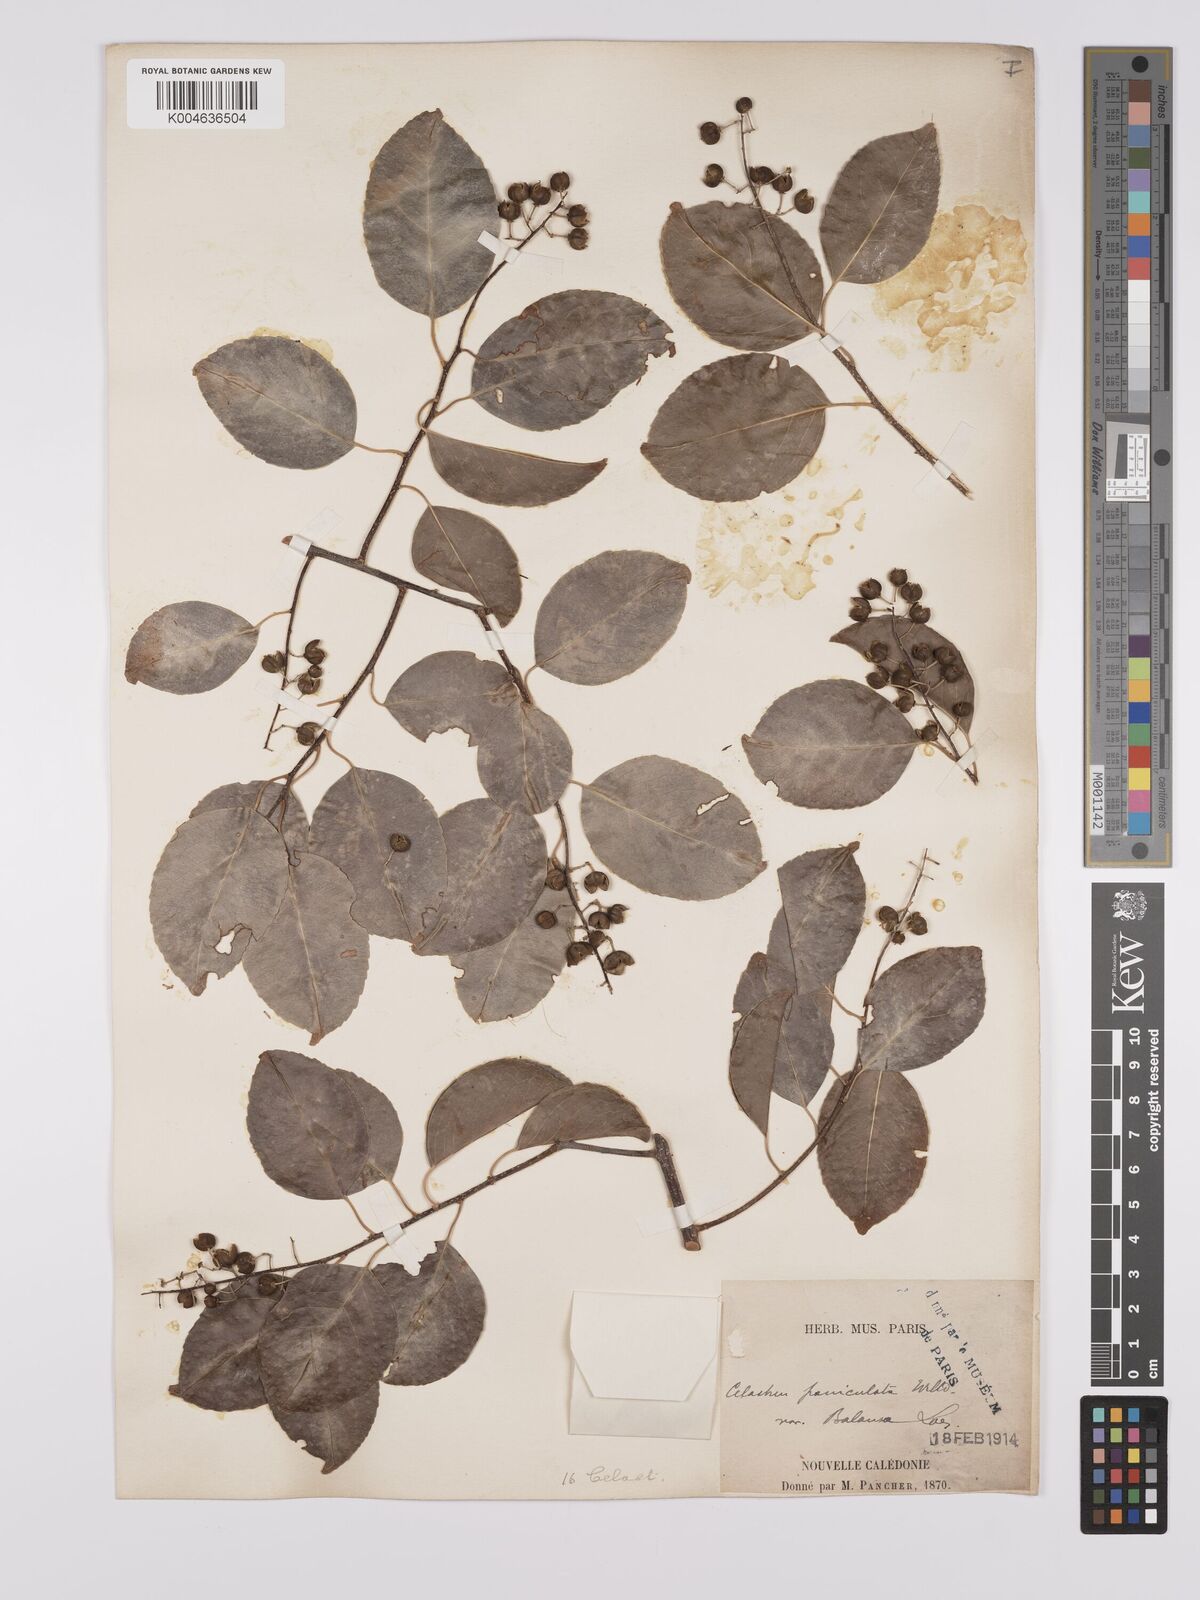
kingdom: Plantae
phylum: Tracheophyta
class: Magnoliopsida
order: Celastrales
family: Celastraceae
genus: Celastrus
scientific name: Celastrus paniculatus
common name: Oriental bittersweet; staff vine
